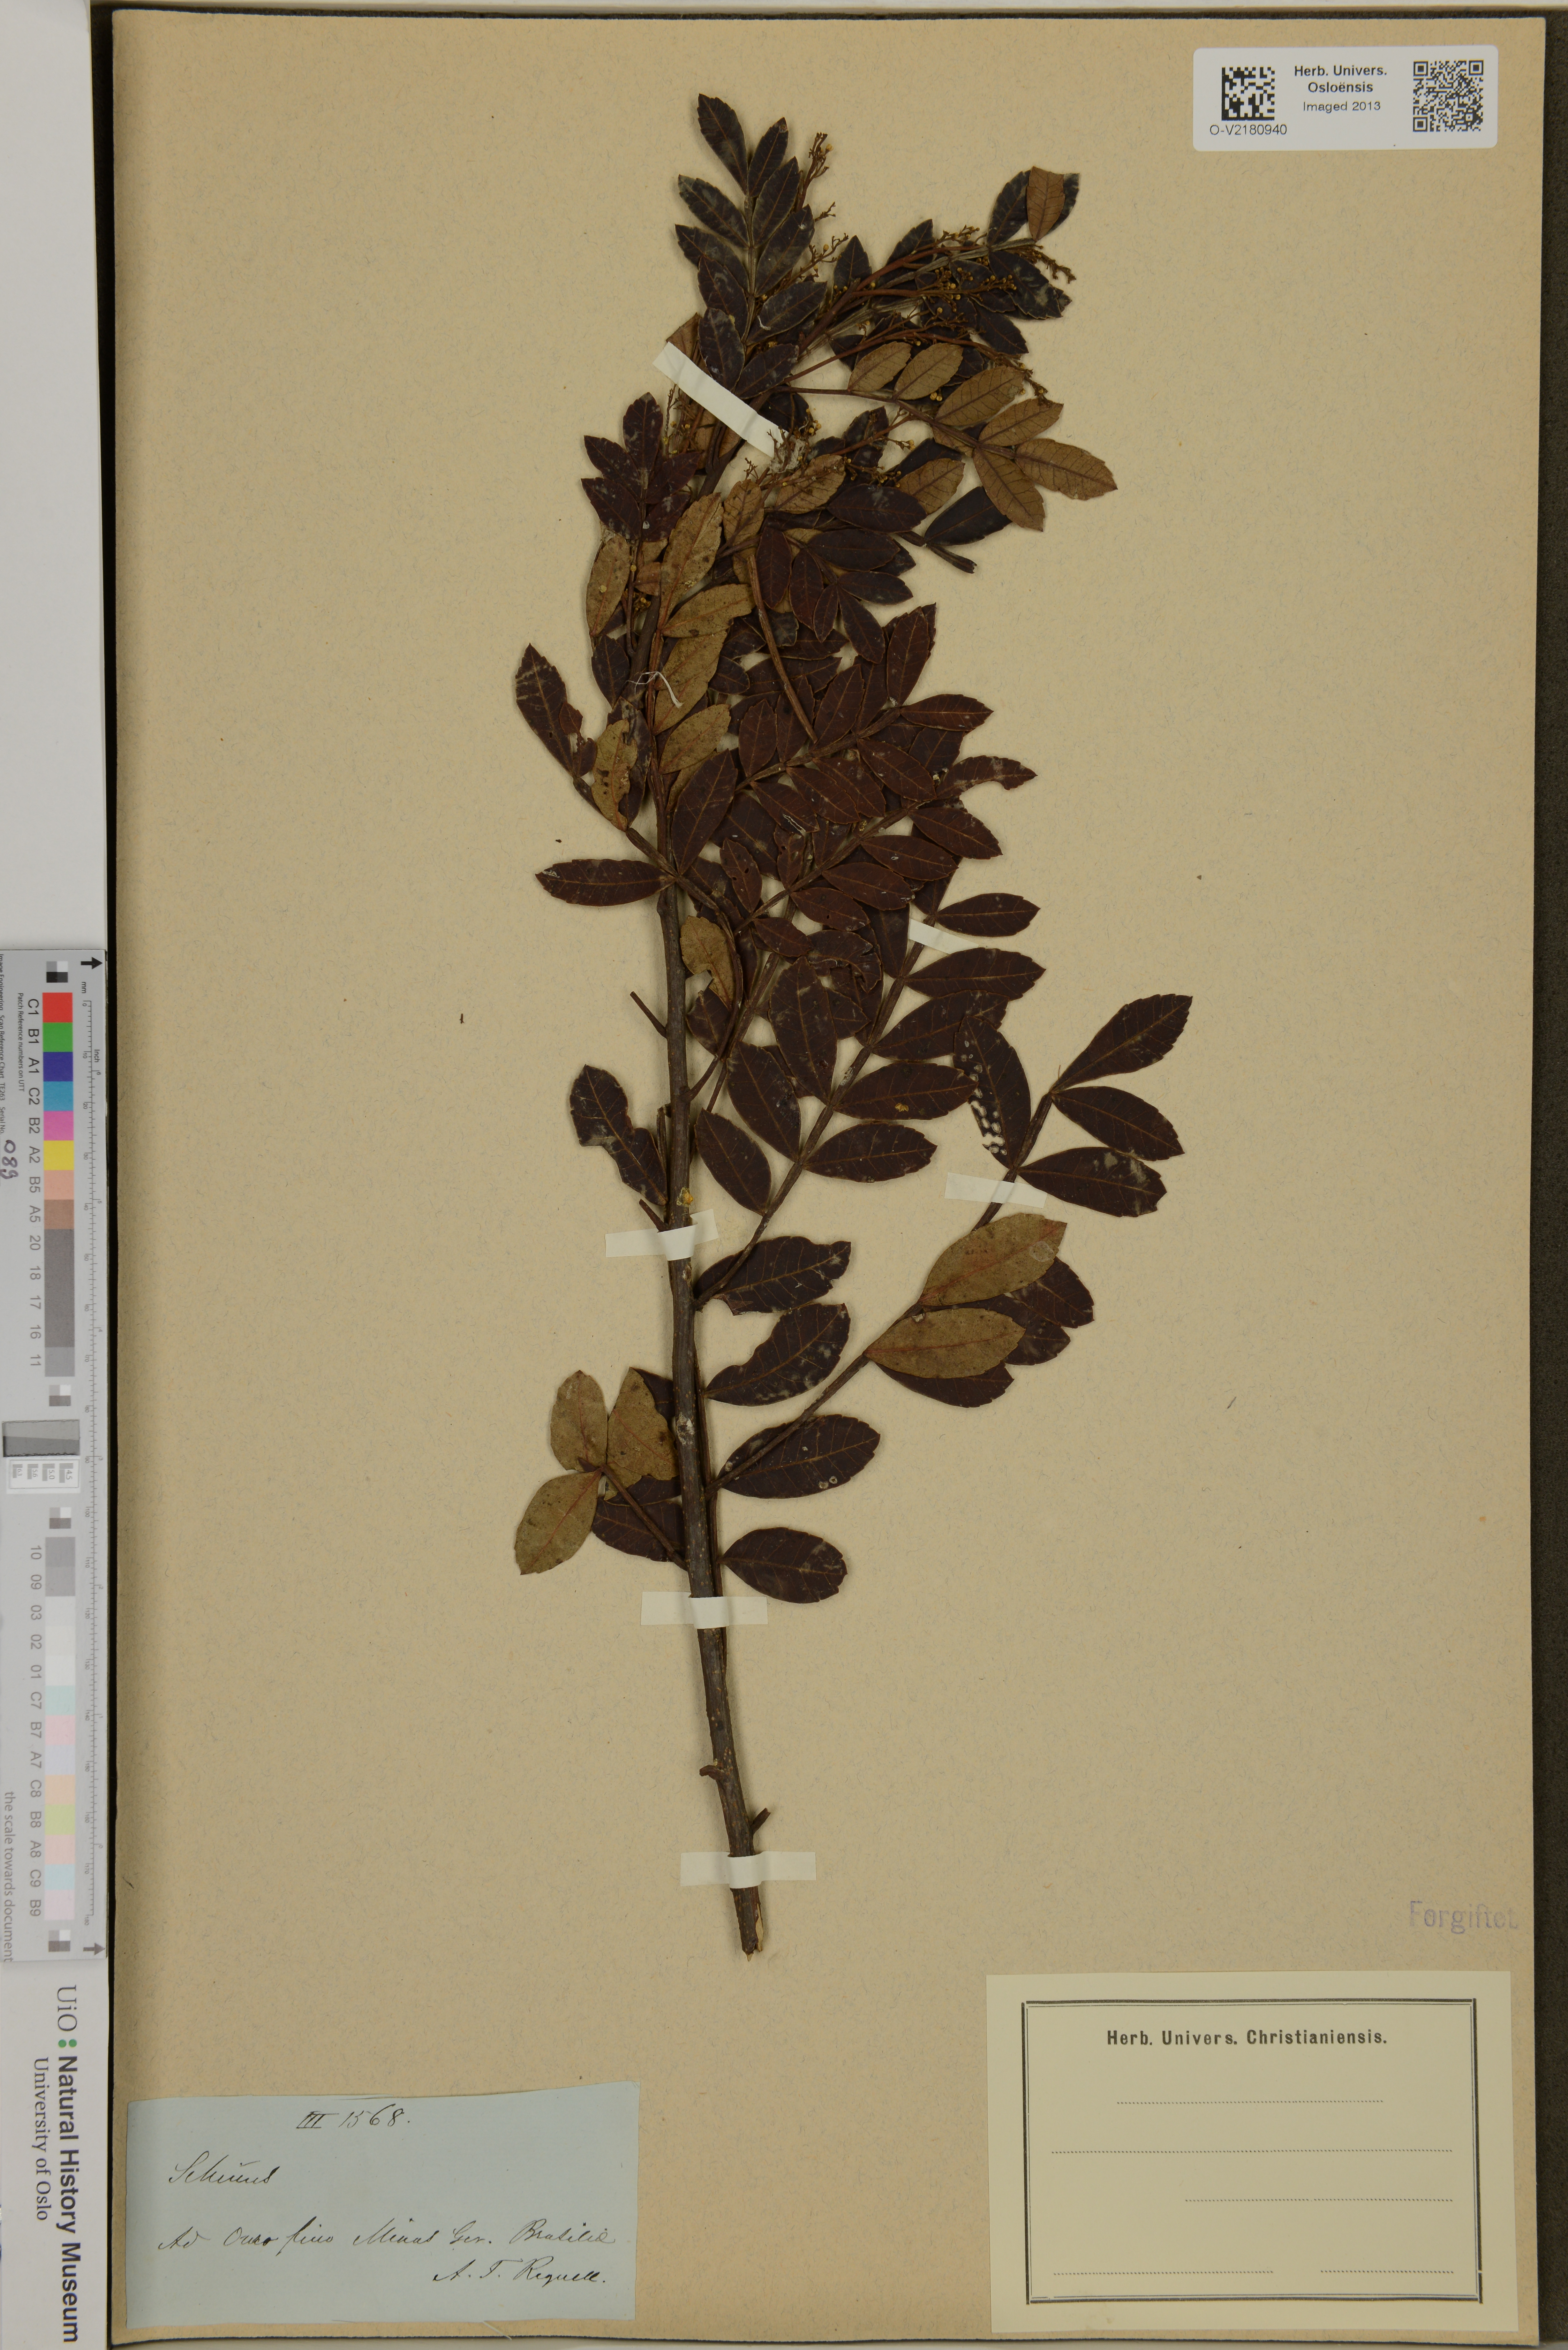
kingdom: Plantae
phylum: Tracheophyta
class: Magnoliopsida
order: Sapindales
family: Anacardiaceae
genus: Schinus
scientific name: Schinus
